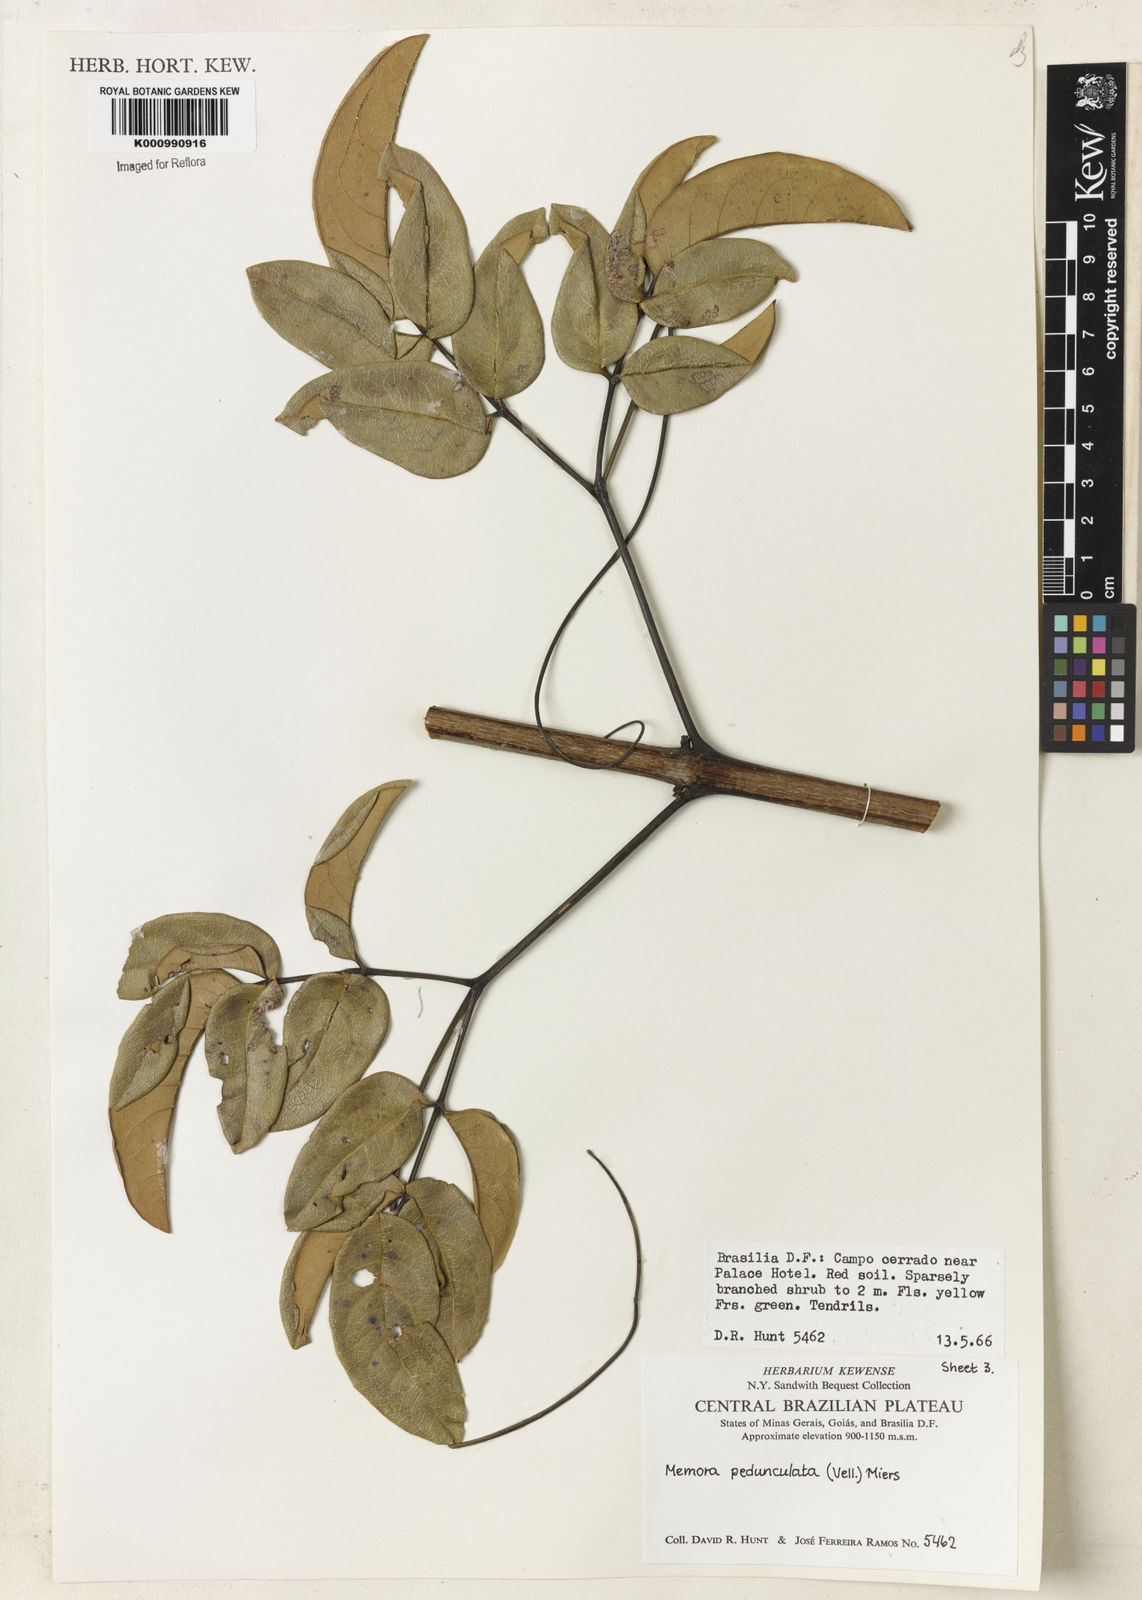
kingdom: Plantae
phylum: Tracheophyta
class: Magnoliopsida
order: Lamiales
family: Bignoniaceae
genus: Adenocalymma
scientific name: Adenocalymma pedunculatum
